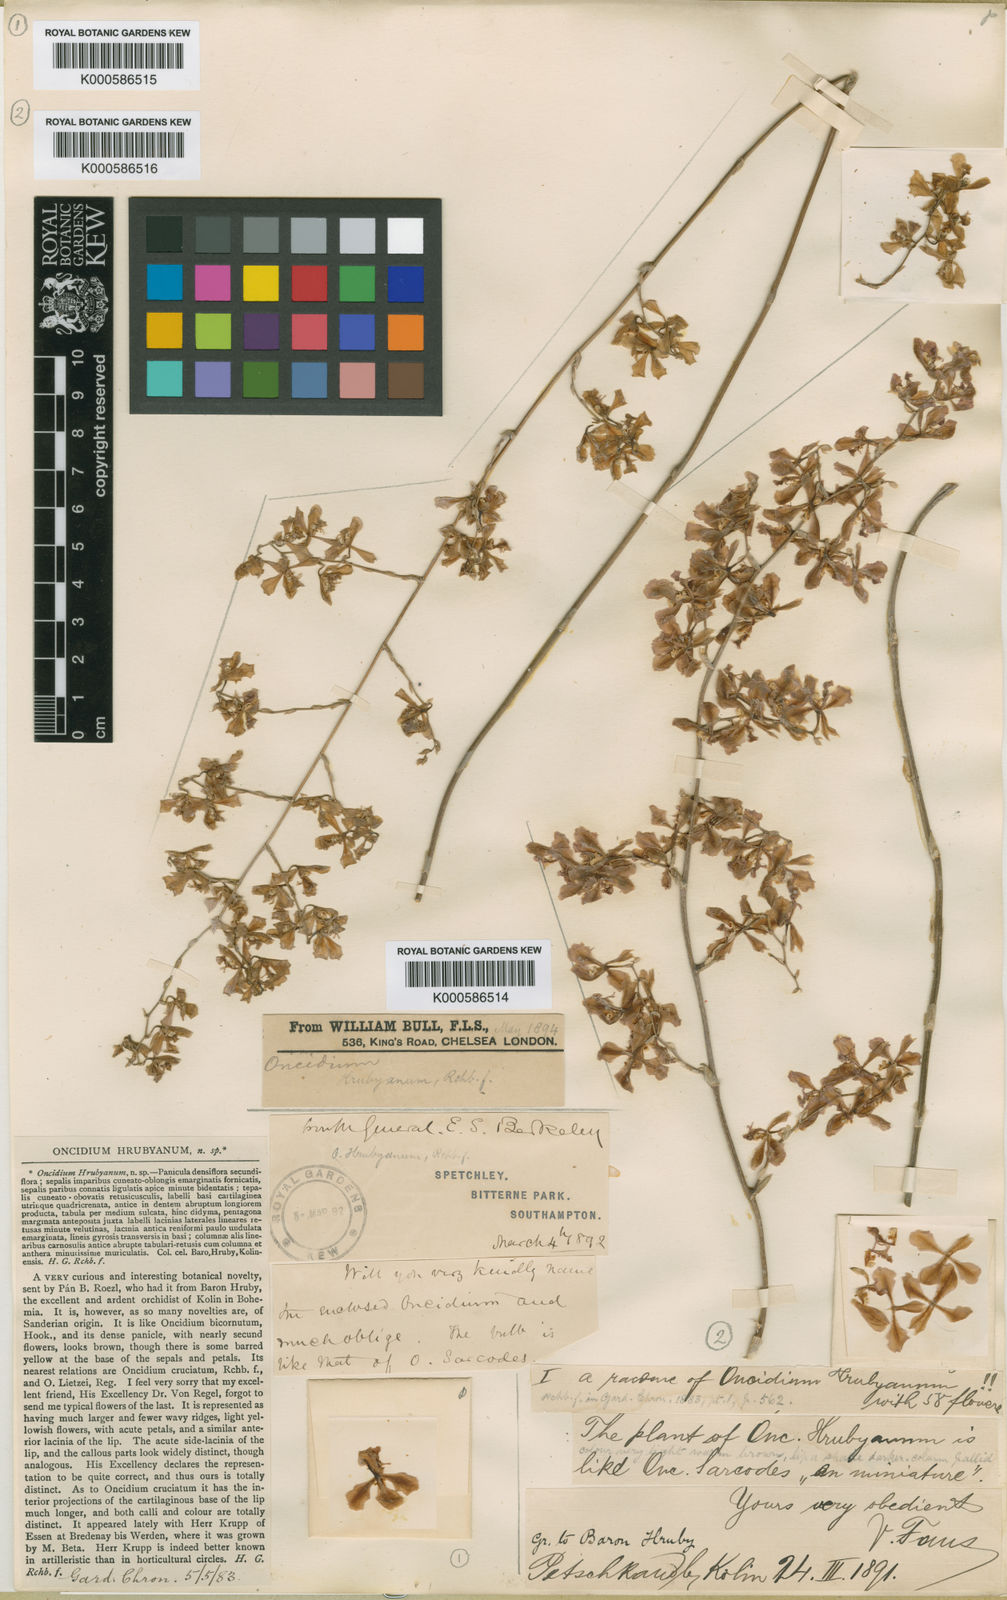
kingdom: Plantae
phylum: Tracheophyta
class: Liliopsida
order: Asparagales
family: Orchidaceae
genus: Gomesa
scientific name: Gomesa lietzei
